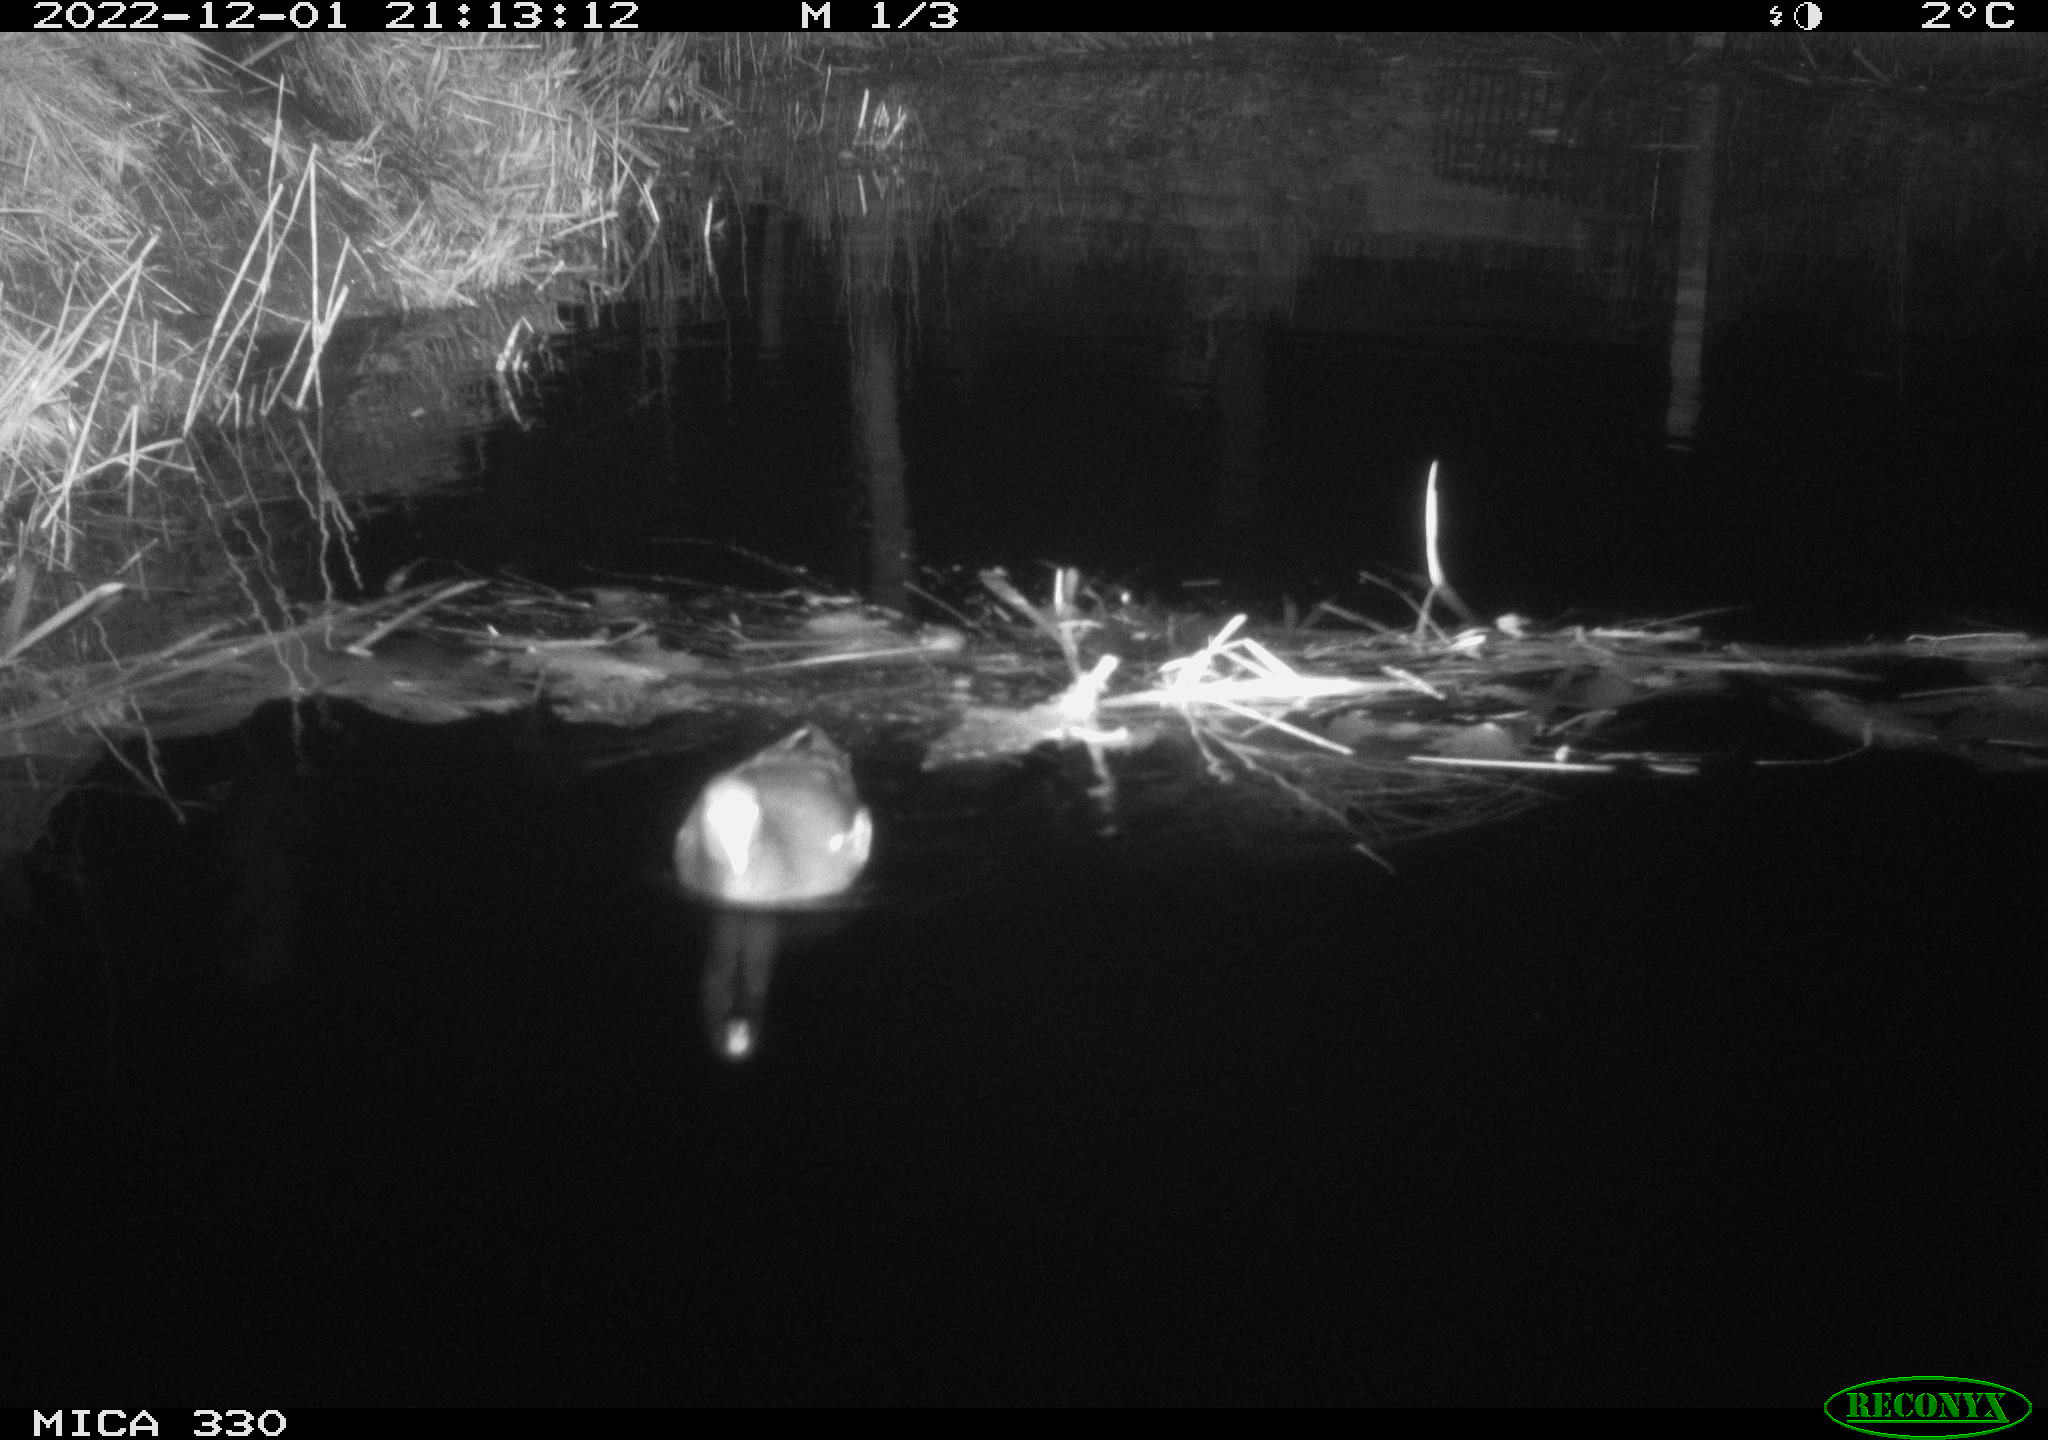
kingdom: Animalia
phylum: Chordata
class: Aves
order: Gruiformes
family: Rallidae
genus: Gallinula
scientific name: Gallinula chloropus
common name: Common moorhen
